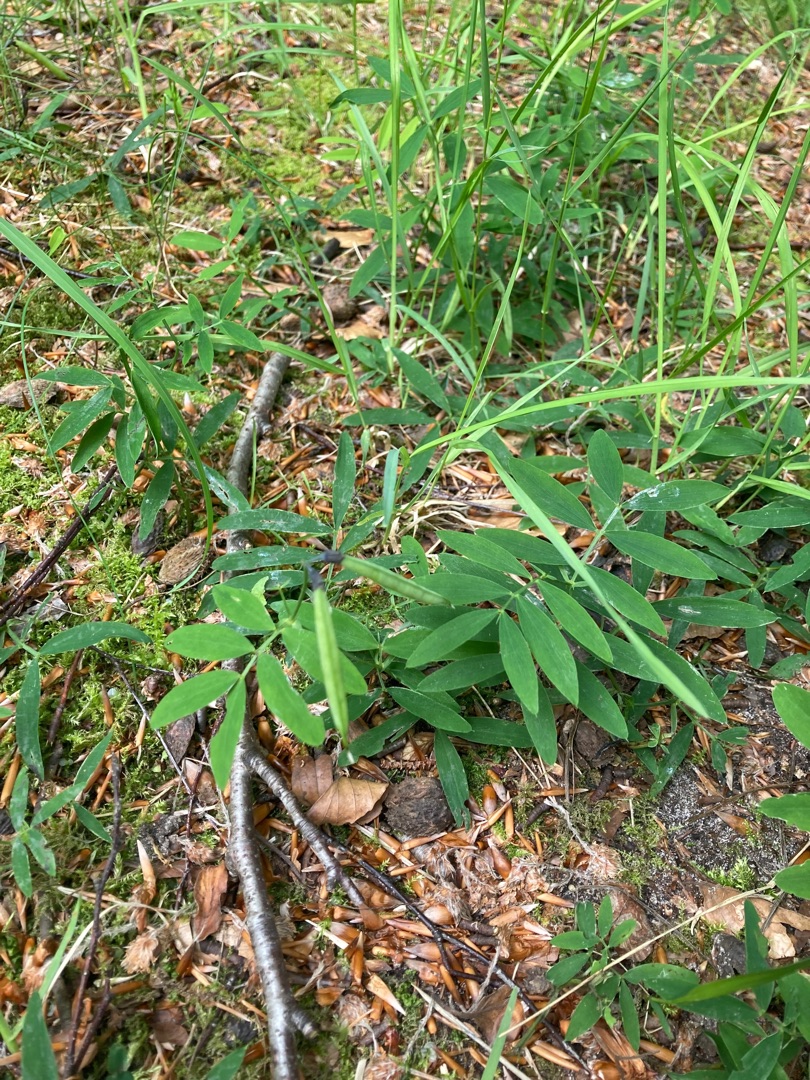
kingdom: Plantae
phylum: Tracheophyta
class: Magnoliopsida
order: Fabales
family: Fabaceae
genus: Lathyrus
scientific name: Lathyrus linifolius
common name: Krat-fladbælg
